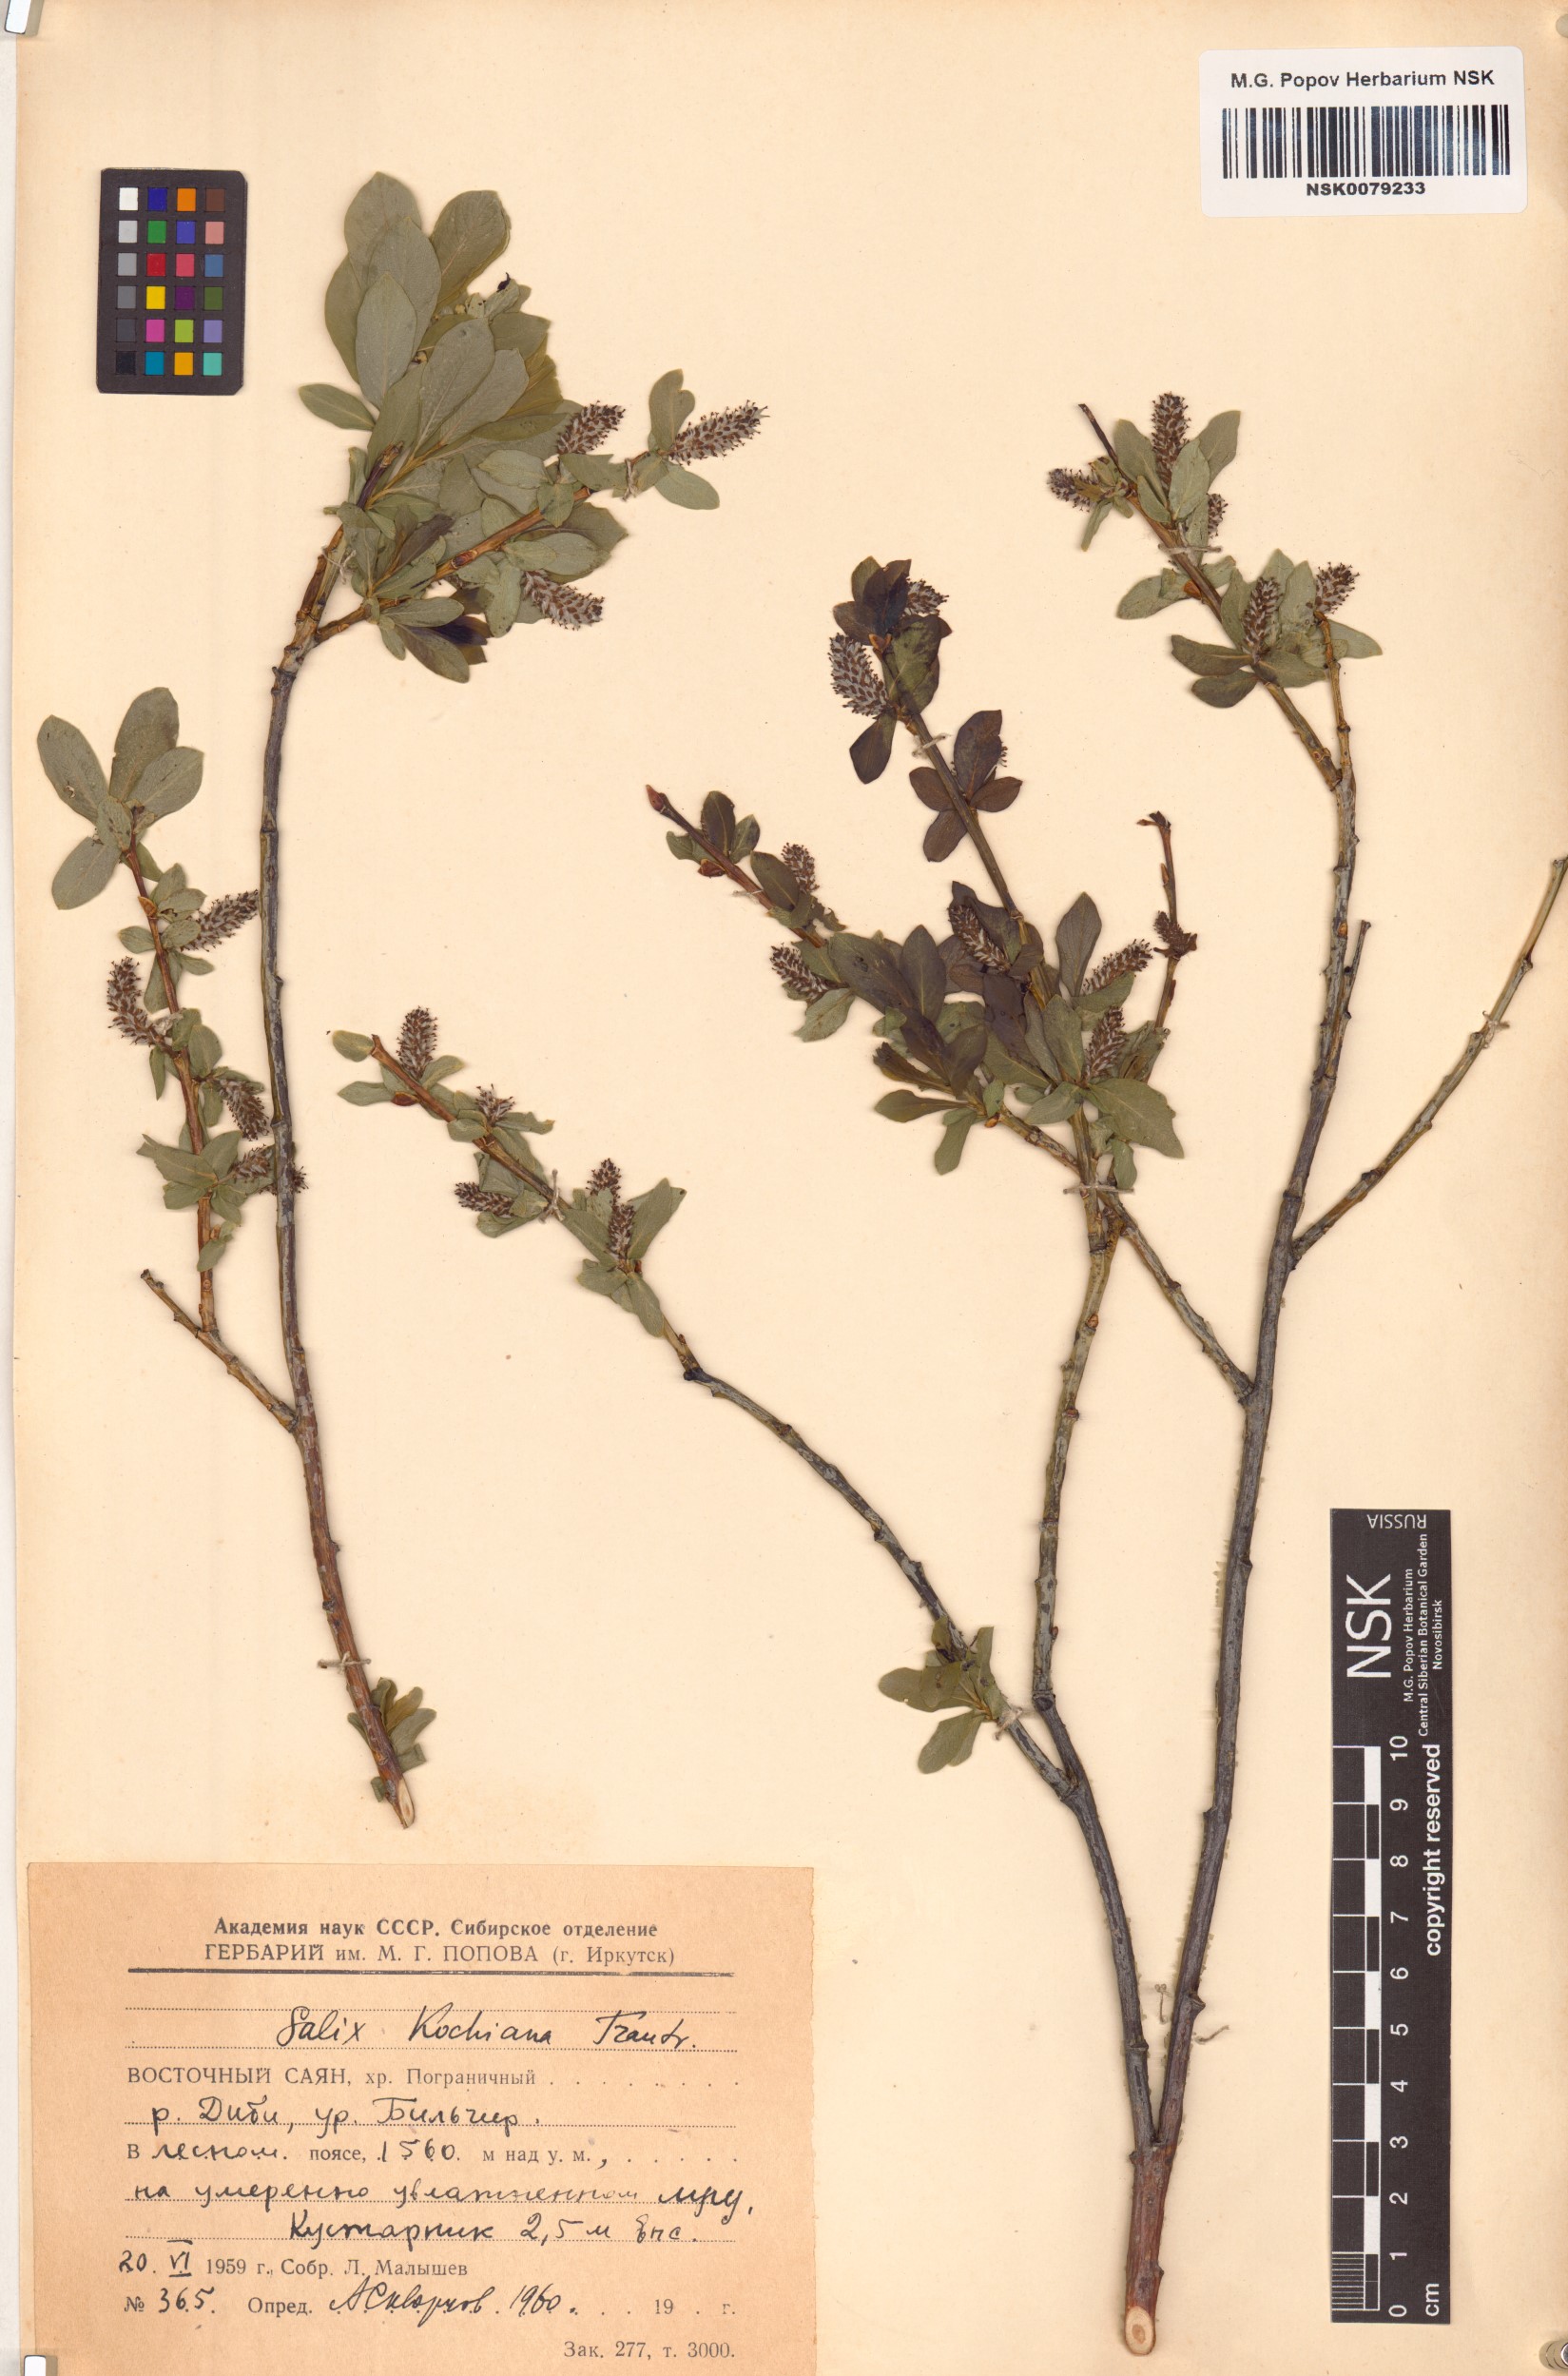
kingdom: Plantae
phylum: Tracheophyta
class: Magnoliopsida
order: Malpighiales
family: Salicaceae
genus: Salix
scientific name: Salix kochiana
